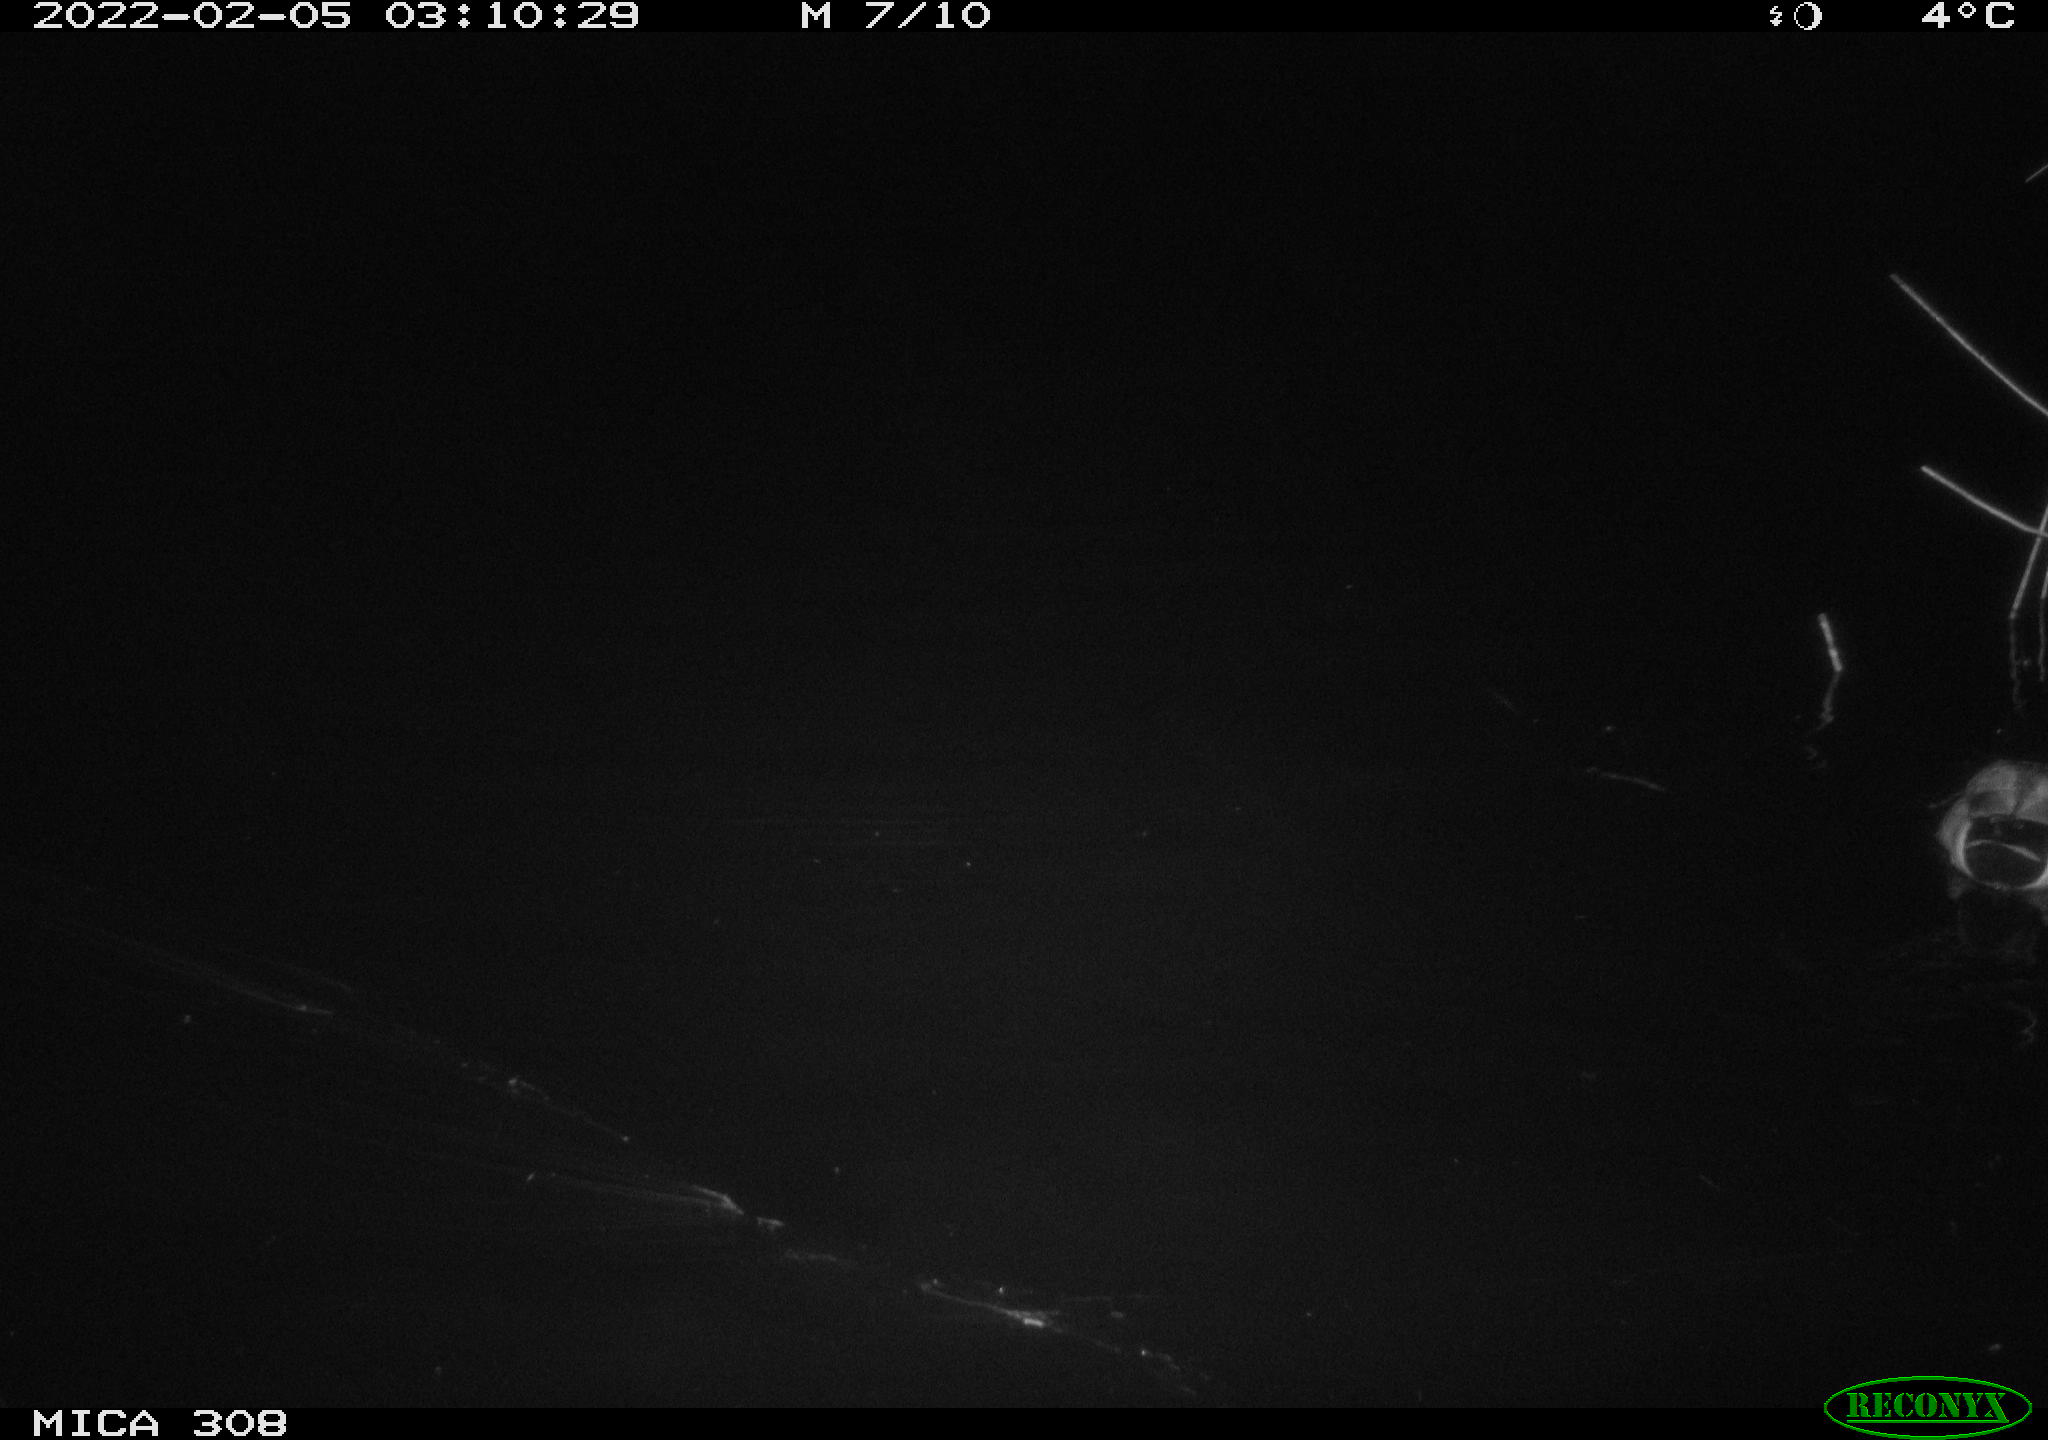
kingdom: Animalia
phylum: Chordata
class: Aves
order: Anseriformes
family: Anatidae
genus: Anas
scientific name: Anas platyrhynchos
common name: Mallard
